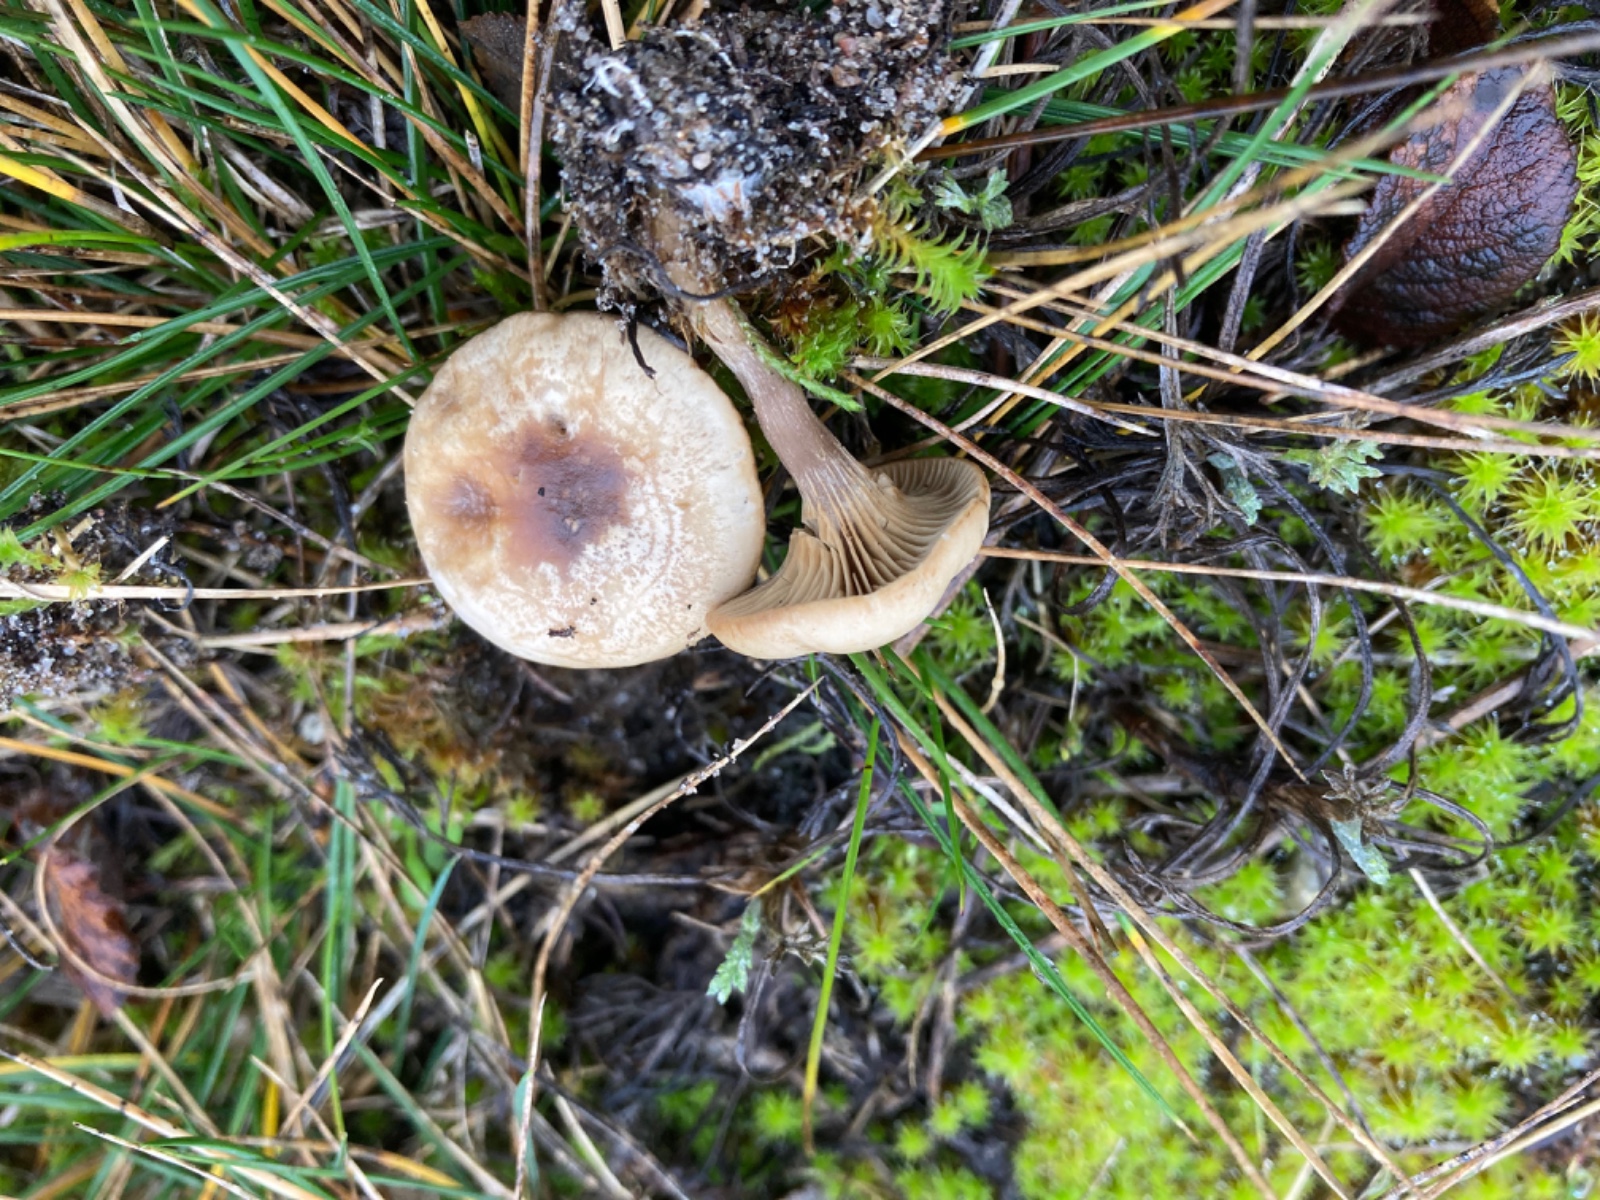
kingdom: Fungi
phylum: Basidiomycota
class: Agaricomycetes
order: Agaricales
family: Tricholomataceae
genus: Lulesia
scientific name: Lulesia
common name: sortnende troldhat
